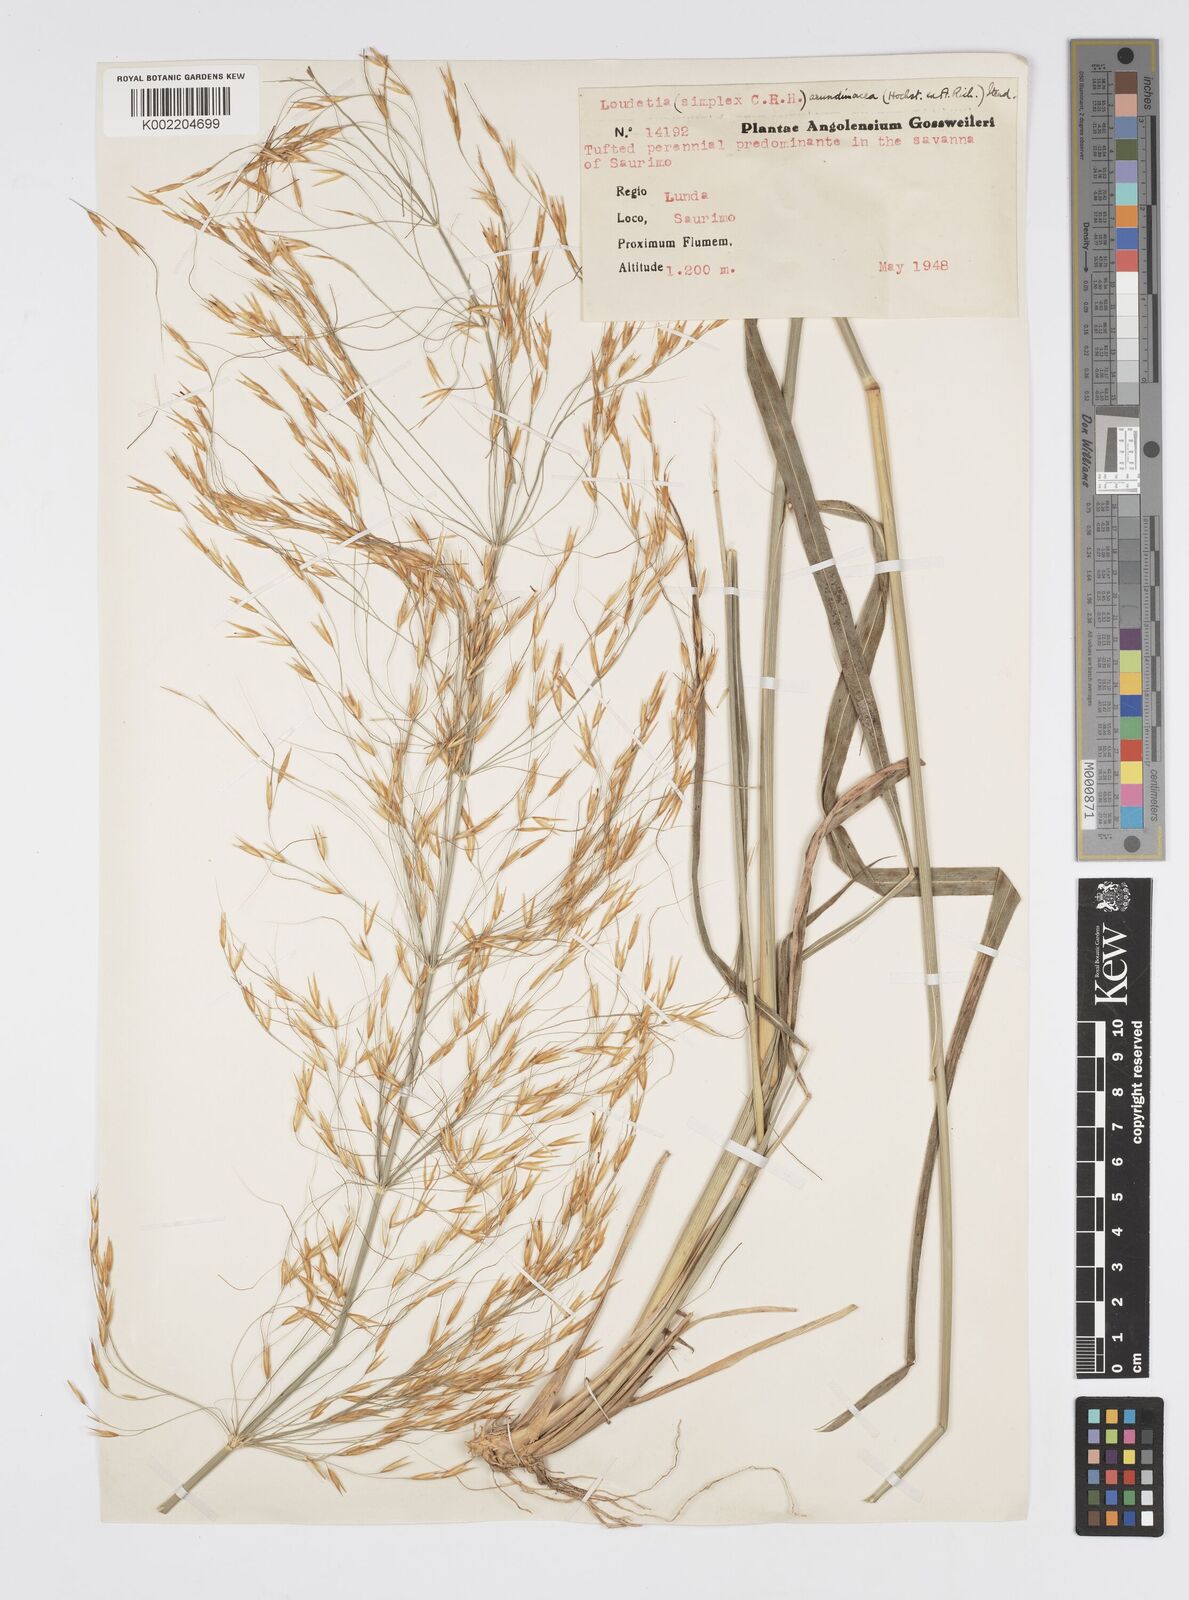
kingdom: Plantae
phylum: Tracheophyta
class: Liliopsida
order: Poales
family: Poaceae
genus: Loudetia
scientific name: Loudetia arundinacea
